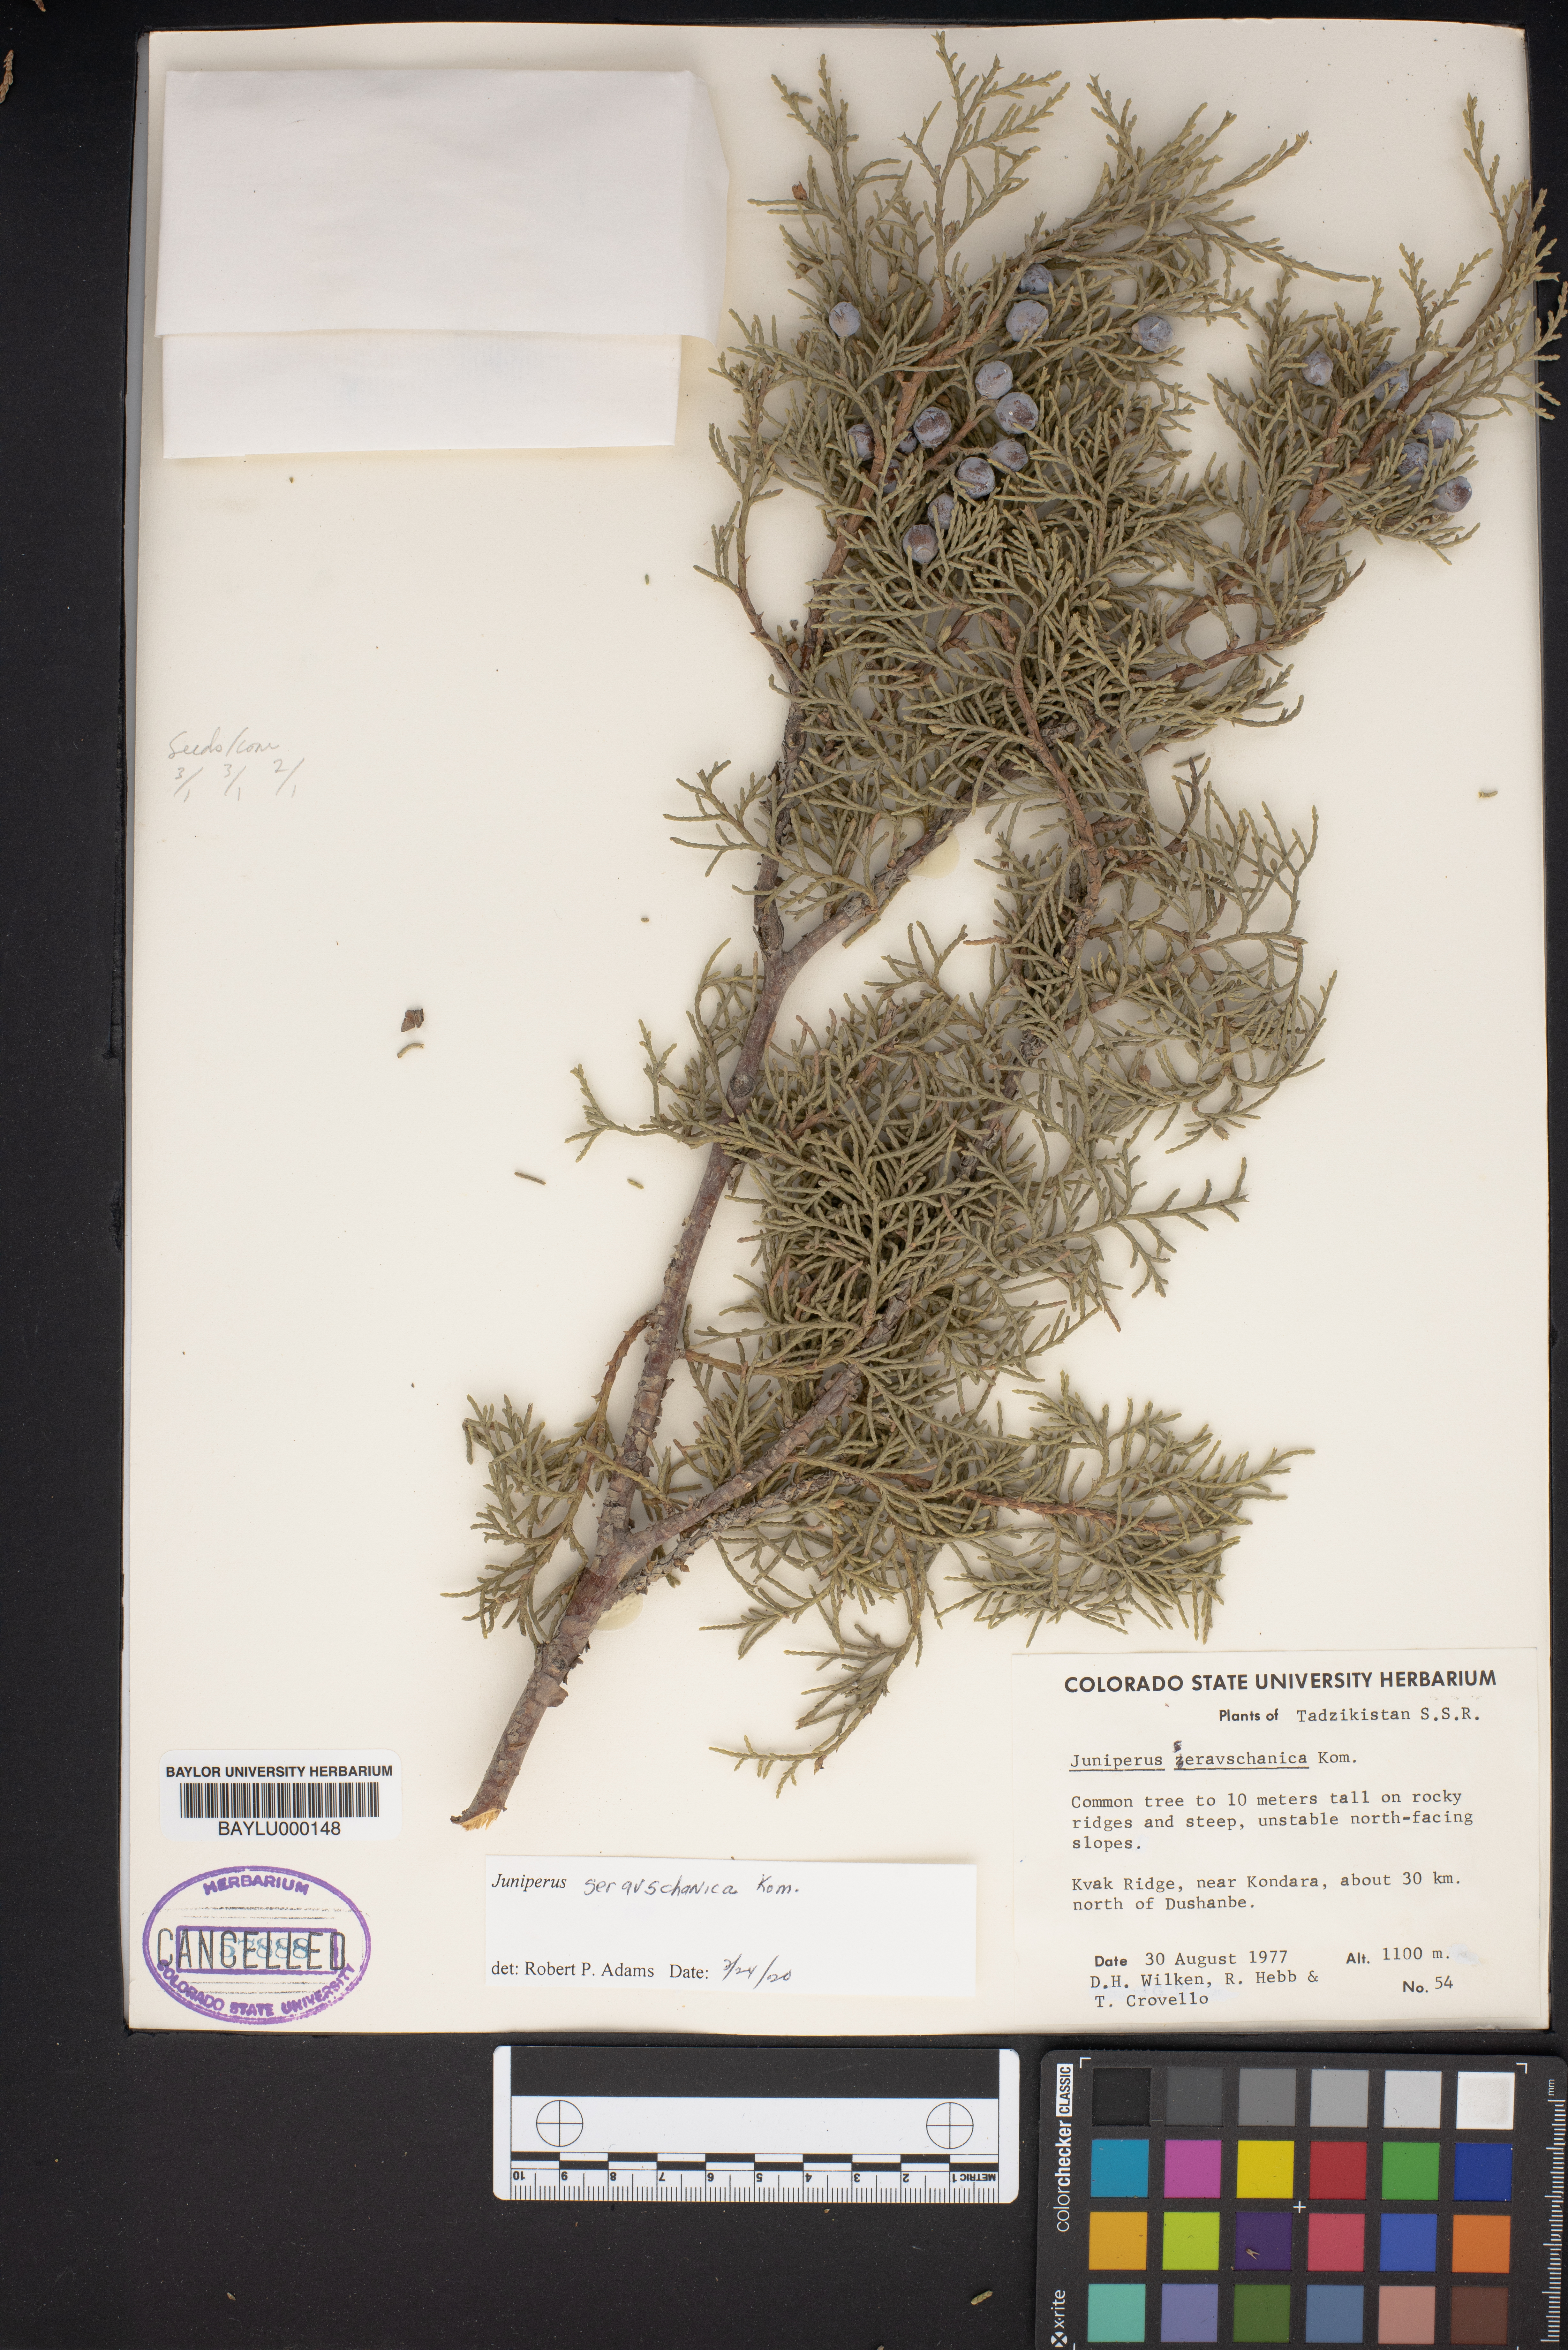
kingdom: Plantae
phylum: Tracheophyta
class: Pinopsida
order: Pinales
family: Cupressaceae
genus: Juniperus
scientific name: Juniperus excelsa
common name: Crimean juniper
